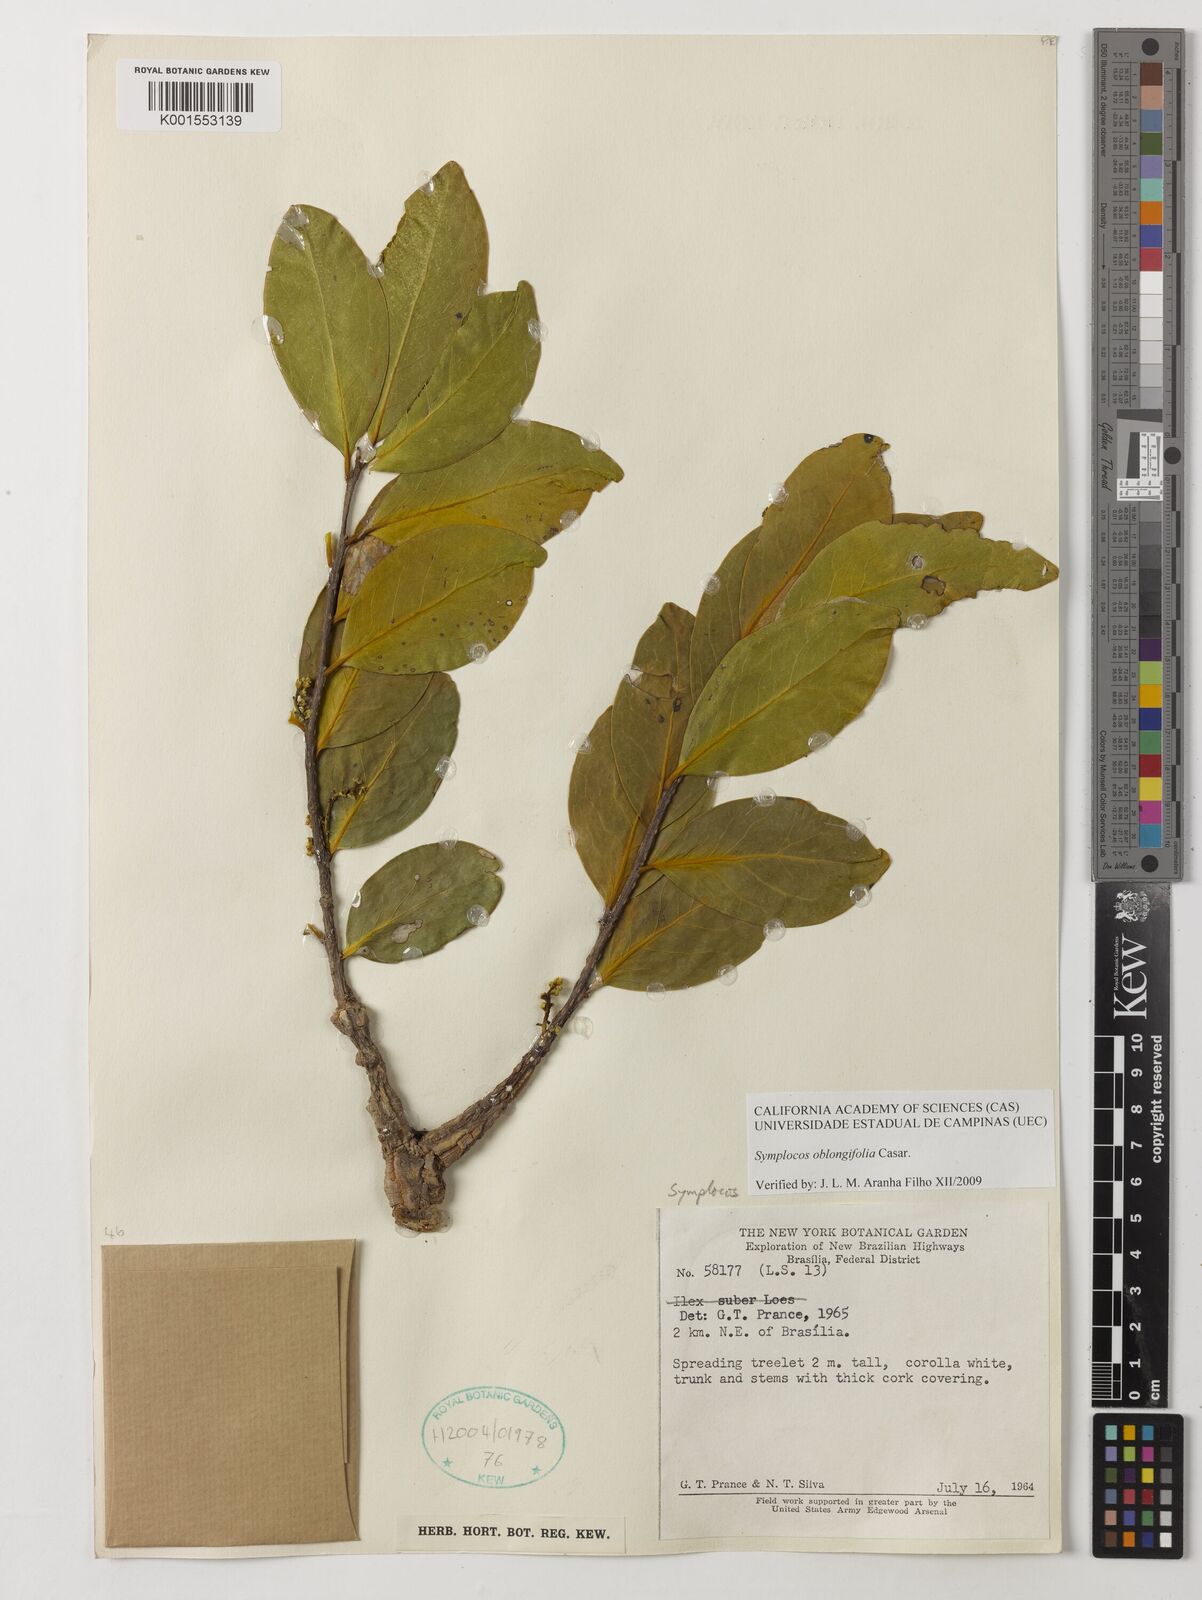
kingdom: Plantae
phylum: Tracheophyta
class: Magnoliopsida
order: Ericales
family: Symplocaceae
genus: Symplocos
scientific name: Symplocos oblongifolia
